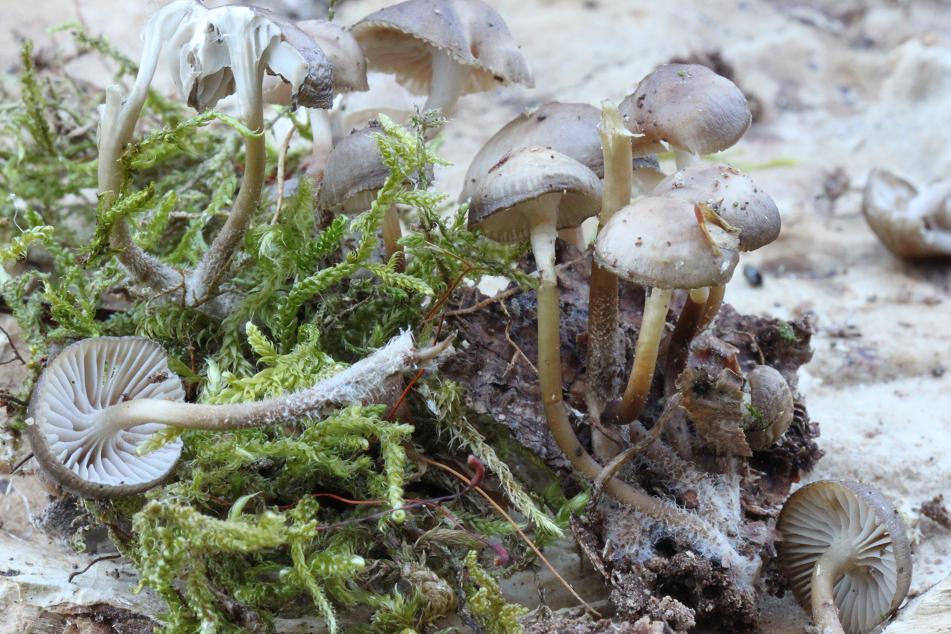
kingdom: Fungi
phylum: Basidiomycota
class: Agaricomycetes
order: Agaricales
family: Mycenaceae
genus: Mycena
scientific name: Mycena tintinnabulum
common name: vinter-huesvamp
